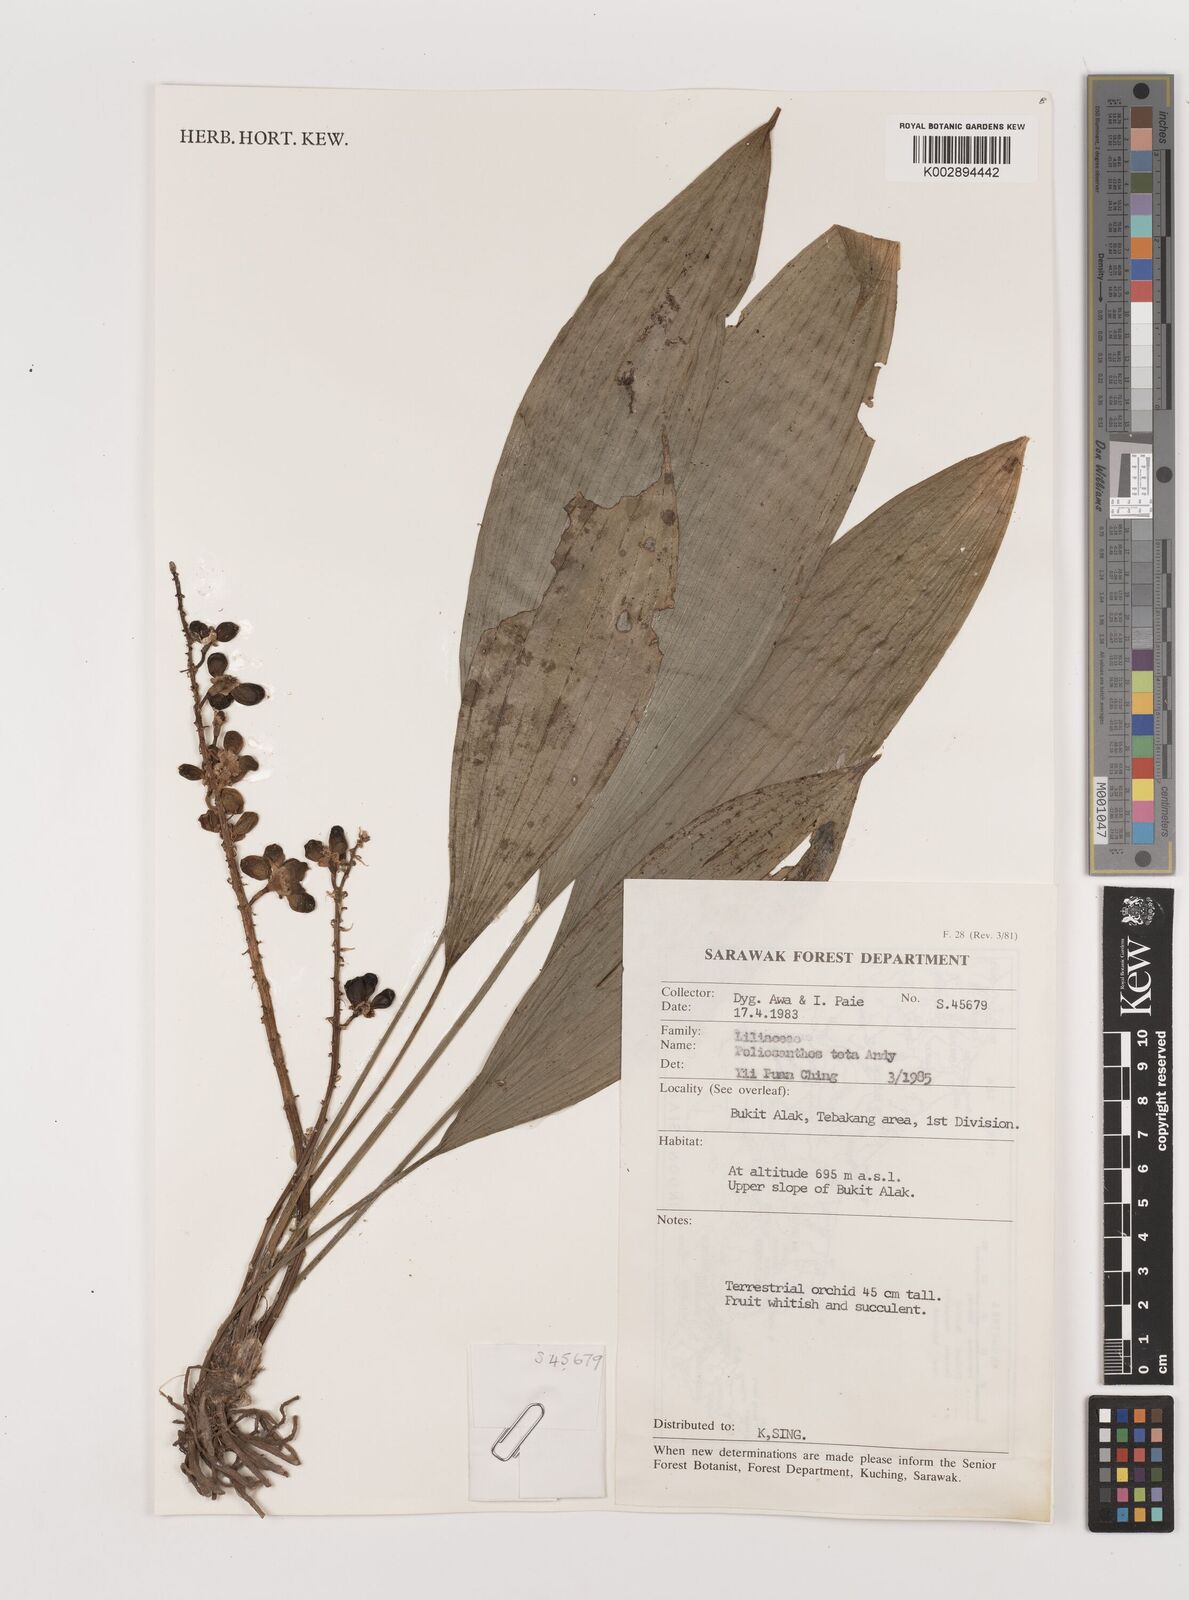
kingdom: Plantae
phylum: Tracheophyta
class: Liliopsida
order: Asparagales
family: Asparagaceae
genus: Peliosanthes
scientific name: Peliosanthes teta
